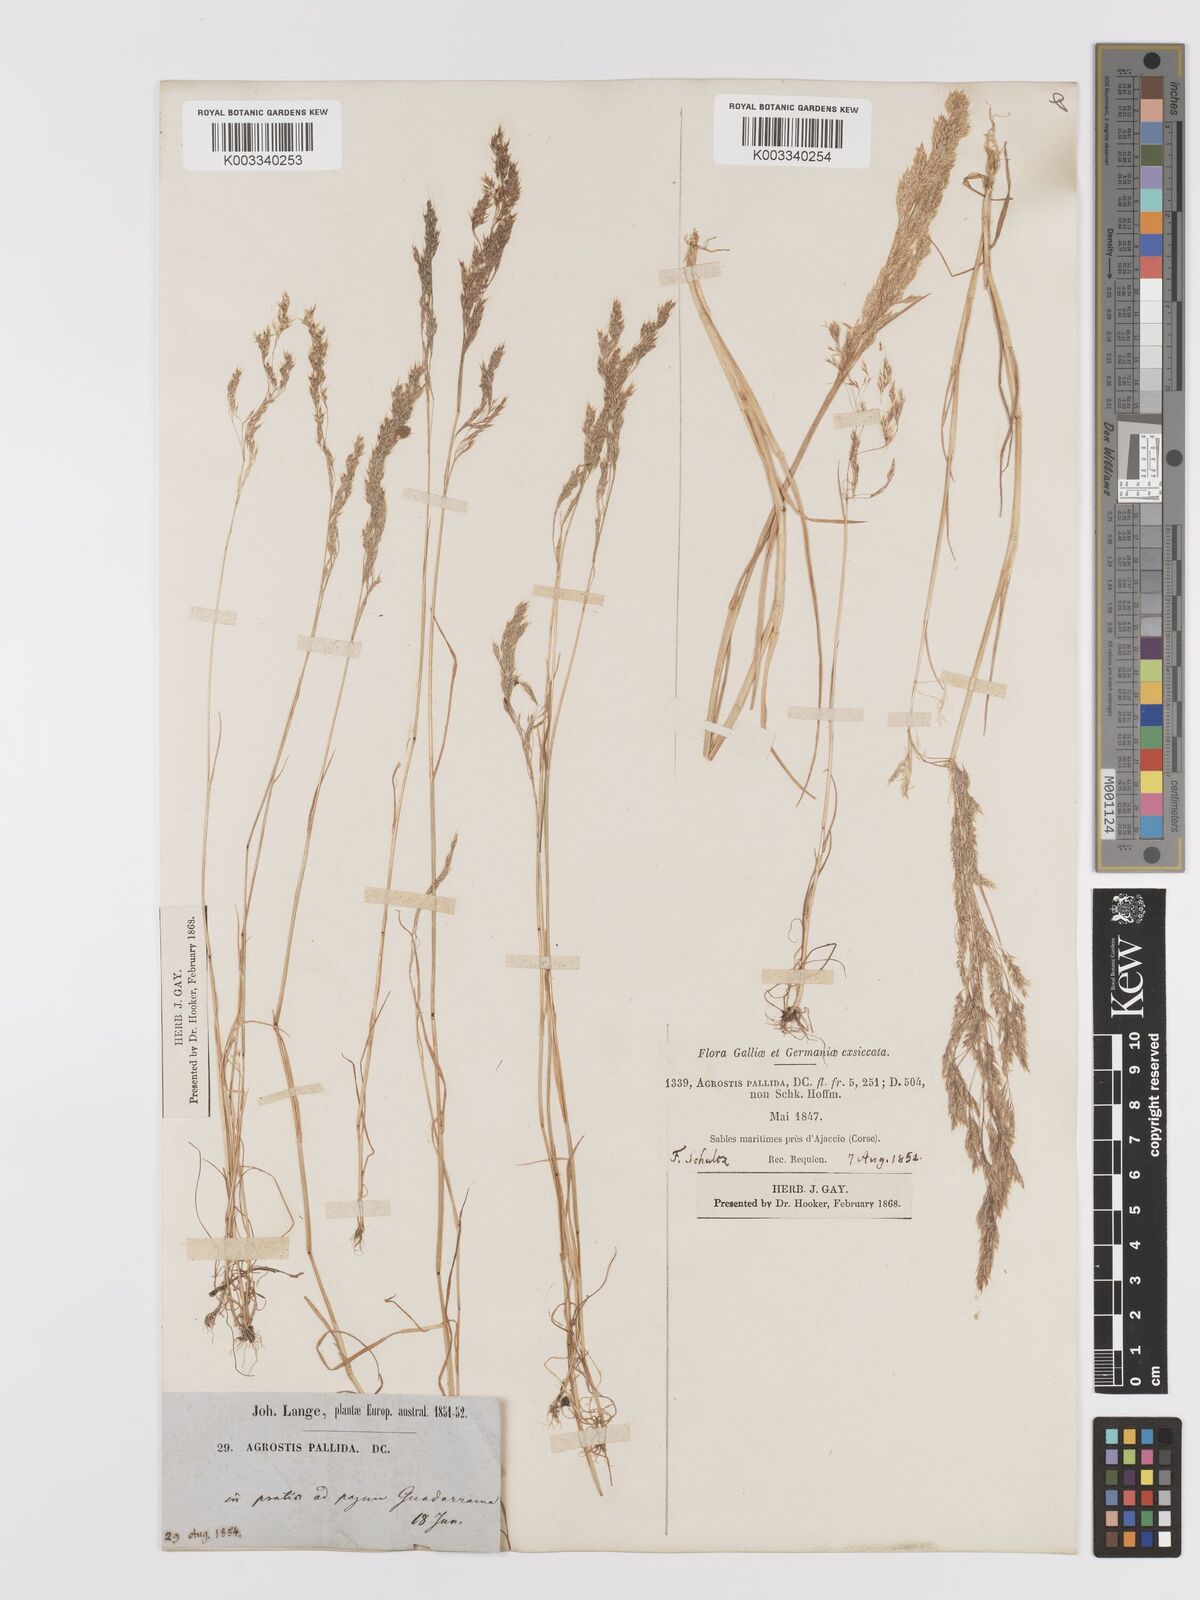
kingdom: Plantae
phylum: Tracheophyta
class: Liliopsida
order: Poales
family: Poaceae
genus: Agrostis
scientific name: Agrostis pourretii
